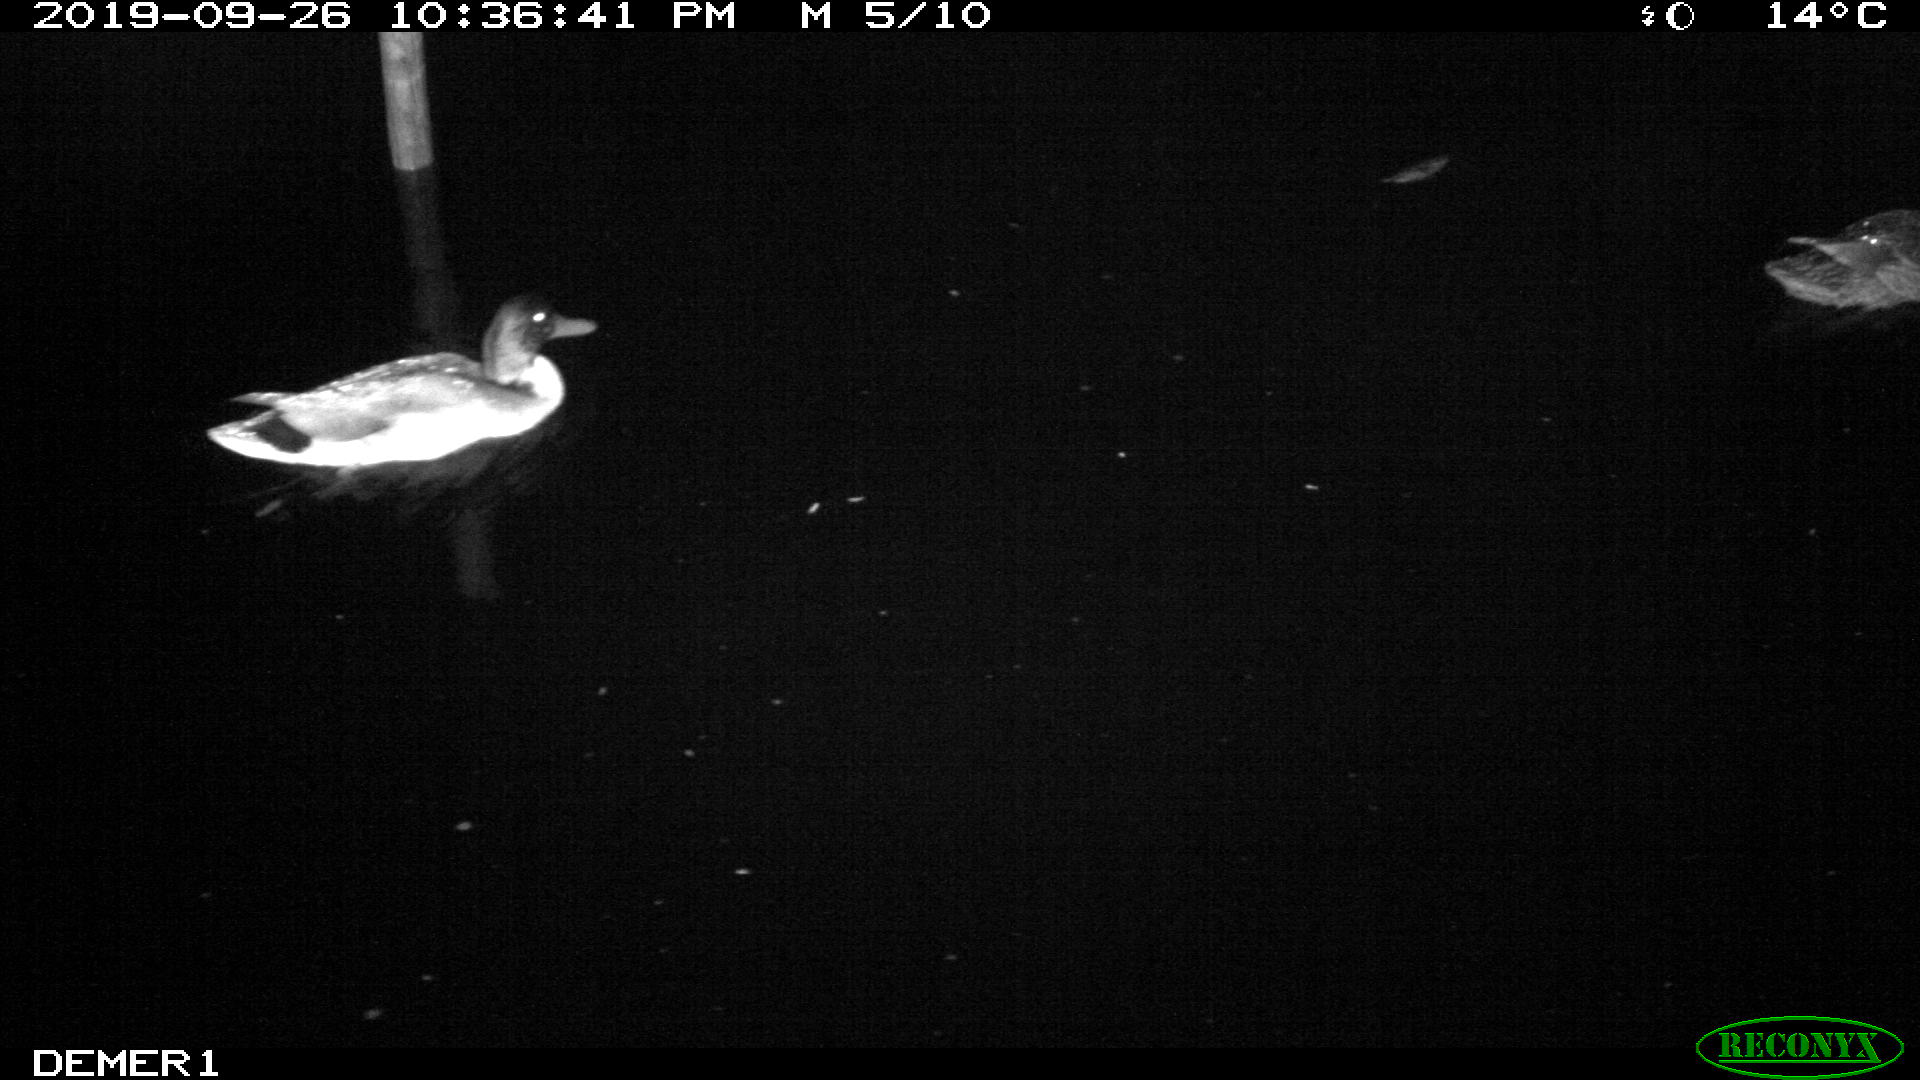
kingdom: Animalia
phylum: Chordata
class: Aves
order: Anseriformes
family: Anatidae
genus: Anas
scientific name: Anas platyrhynchos
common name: Mallard
